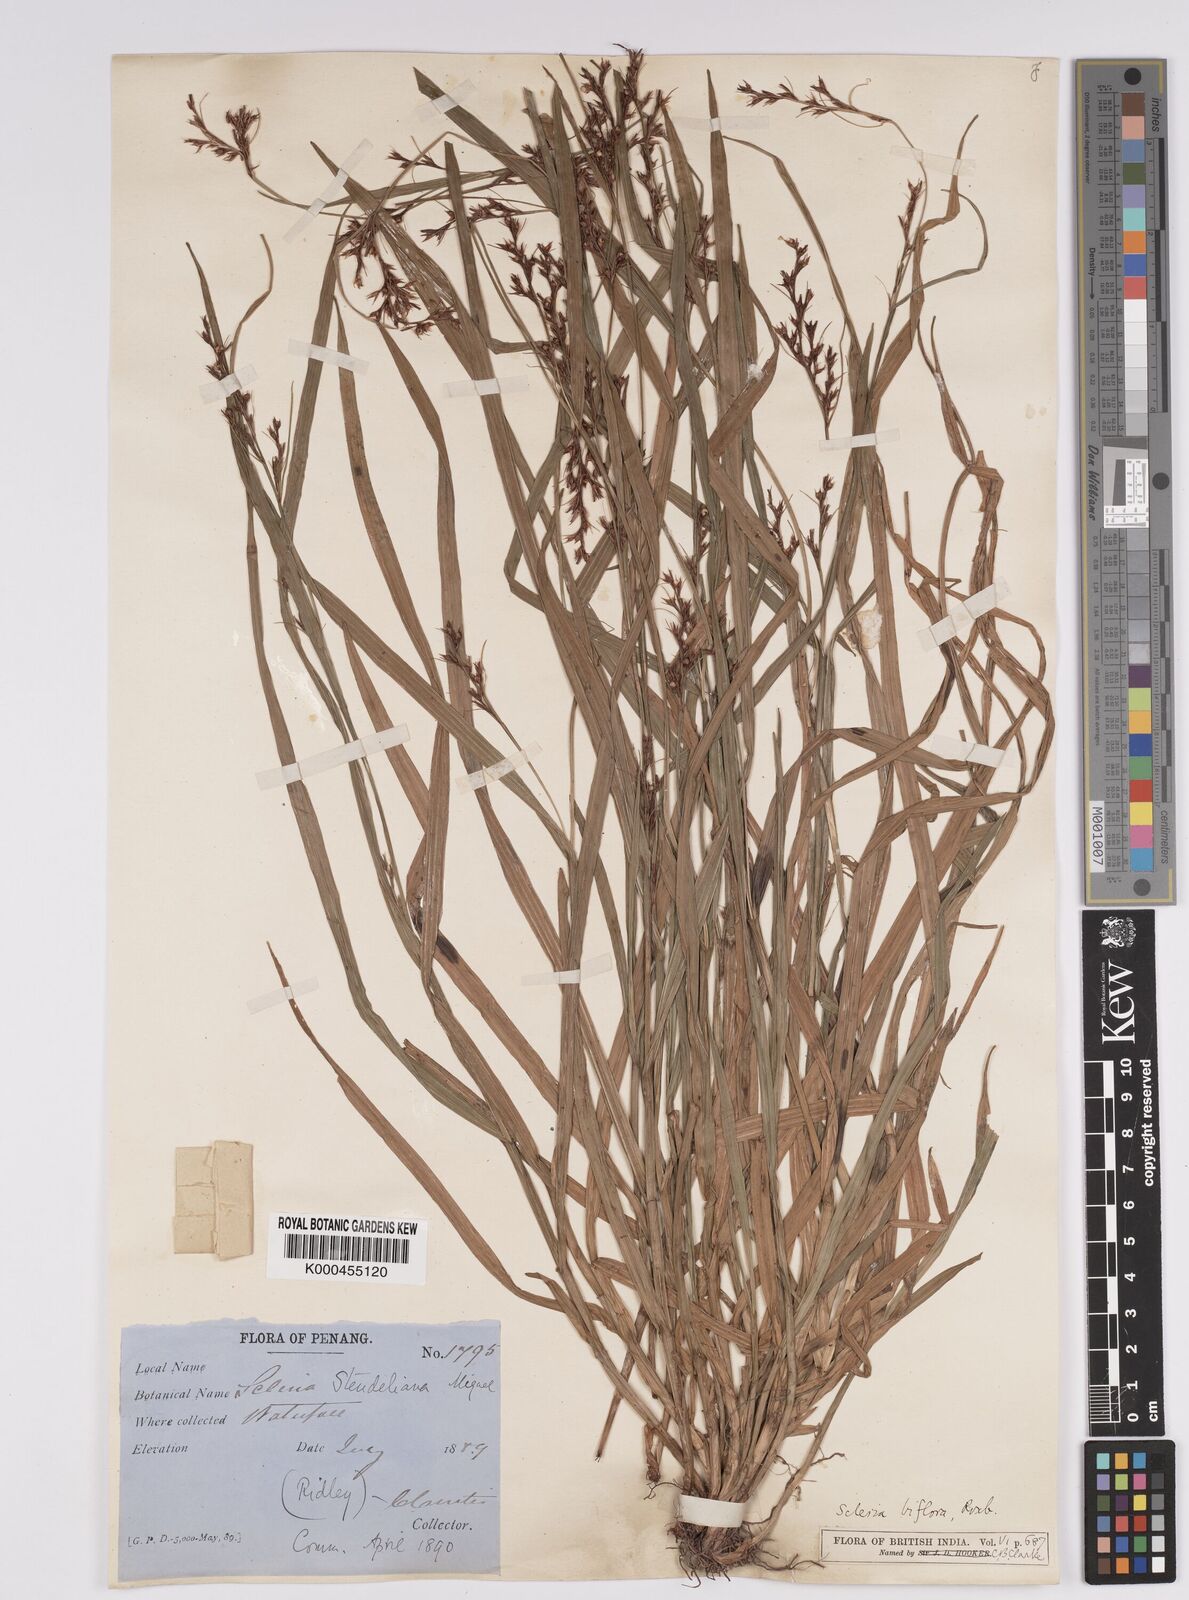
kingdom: Plantae
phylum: Tracheophyta
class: Liliopsida
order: Poales
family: Cyperaceae
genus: Scleria
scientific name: Scleria biflora
